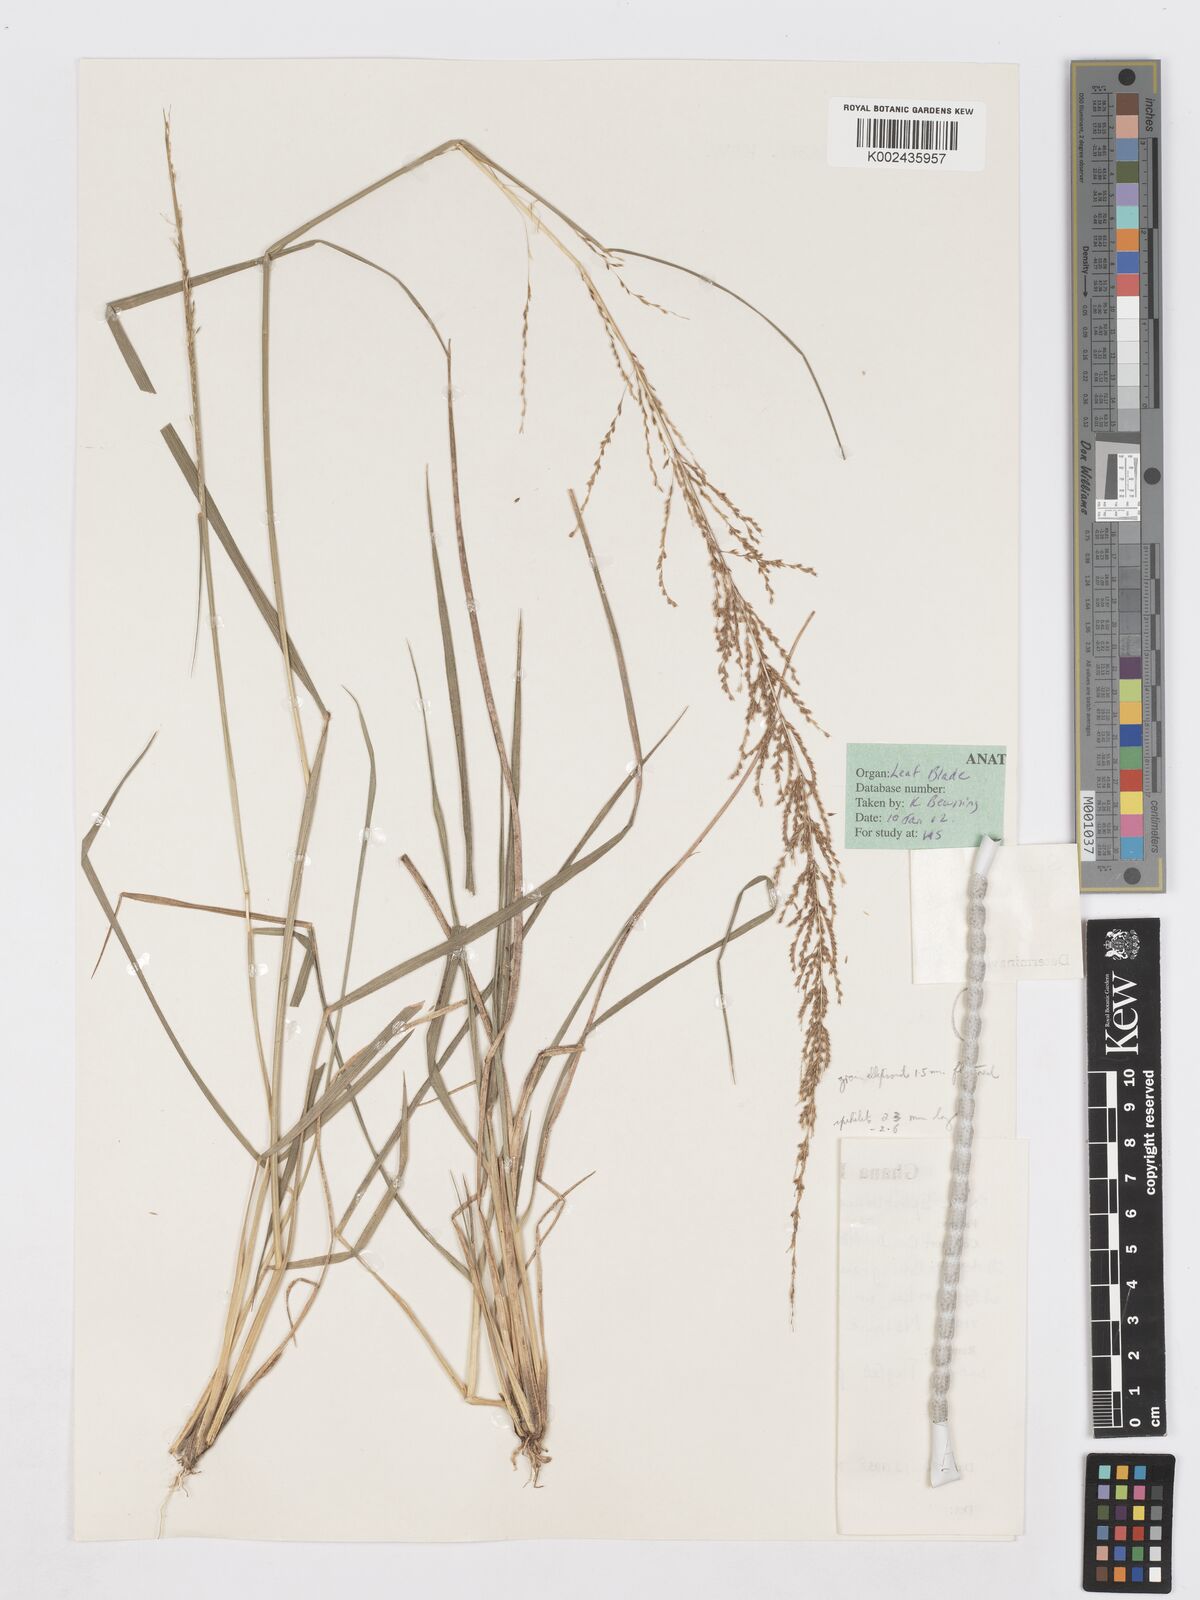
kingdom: Plantae
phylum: Tracheophyta
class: Liliopsida
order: Poales
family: Poaceae
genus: Sporobolus
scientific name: Sporobolus sanguineus
